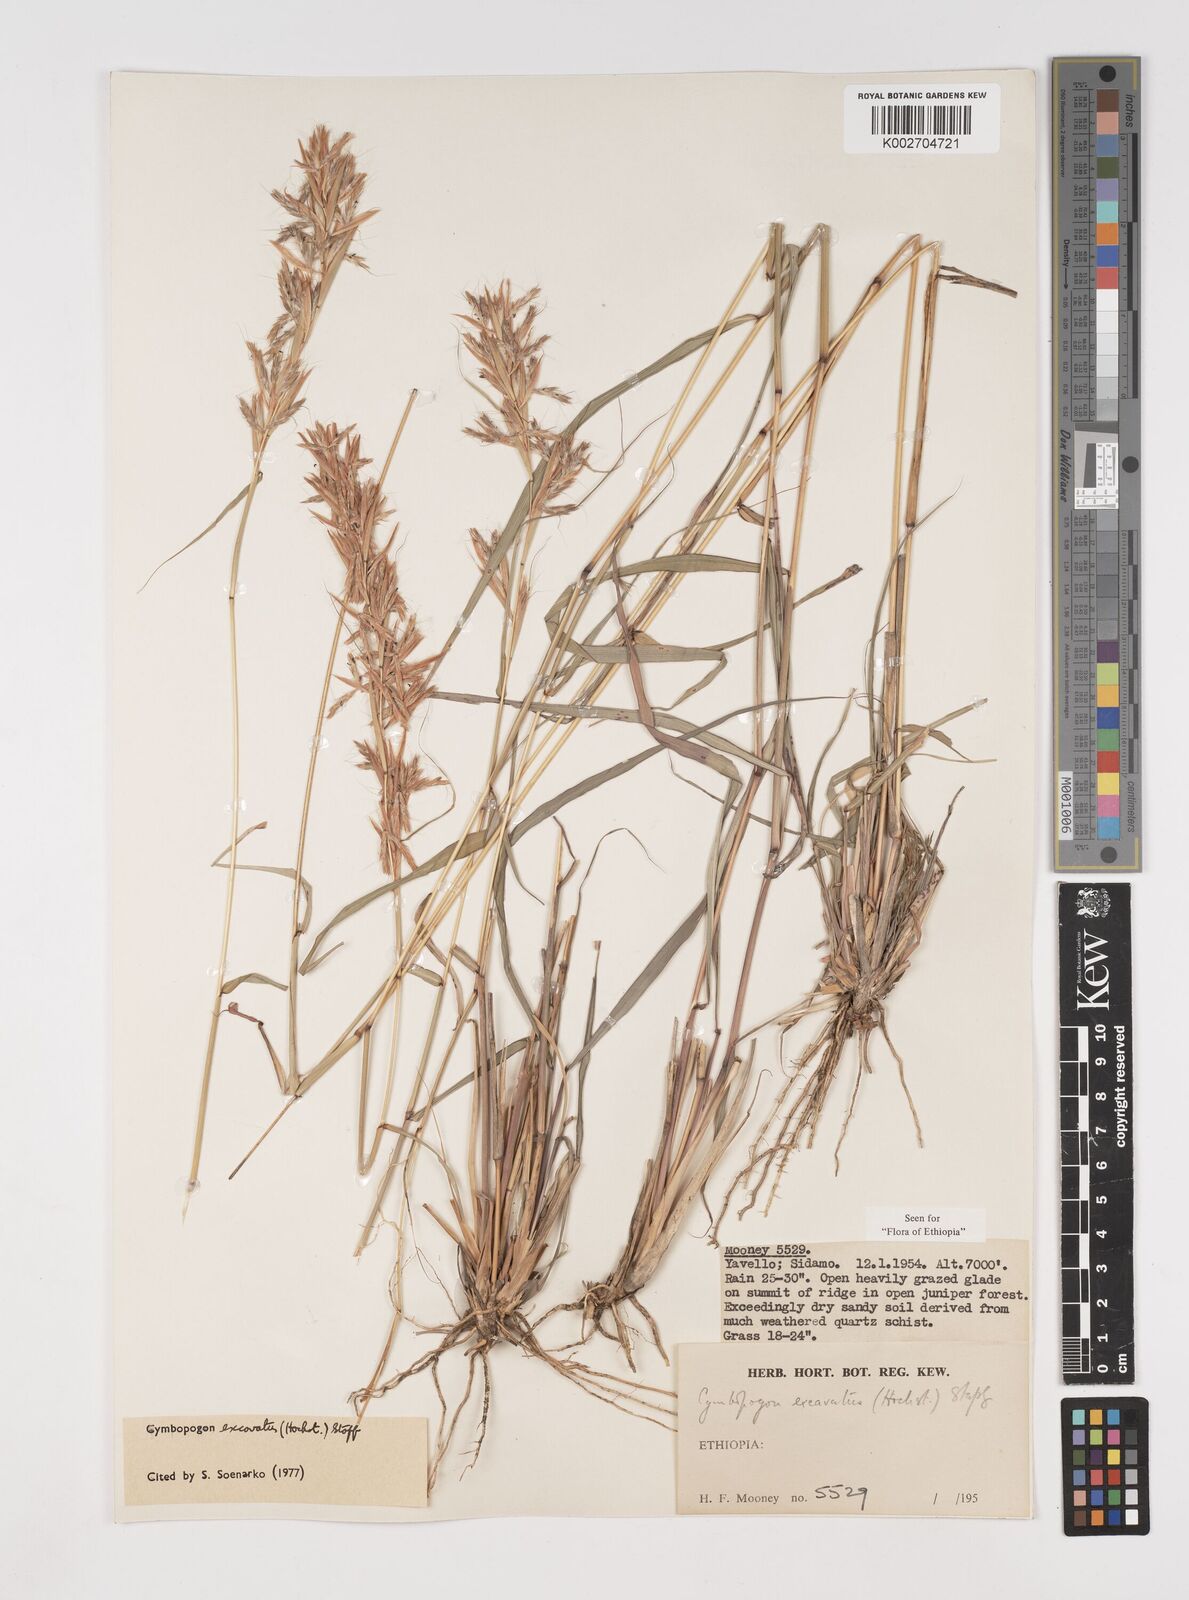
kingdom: Plantae
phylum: Tracheophyta
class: Liliopsida
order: Poales
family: Poaceae
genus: Cymbopogon
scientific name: Cymbopogon
